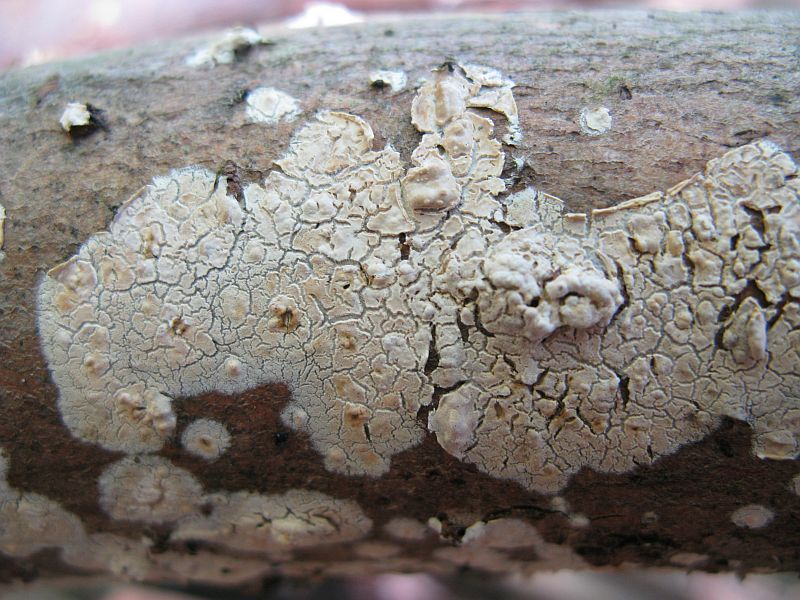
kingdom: Fungi
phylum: Basidiomycota
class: Agaricomycetes
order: Agaricales
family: Physalacriaceae
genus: Cylindrobasidium
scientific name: Cylindrobasidium evolvens
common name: sprækkehinde
